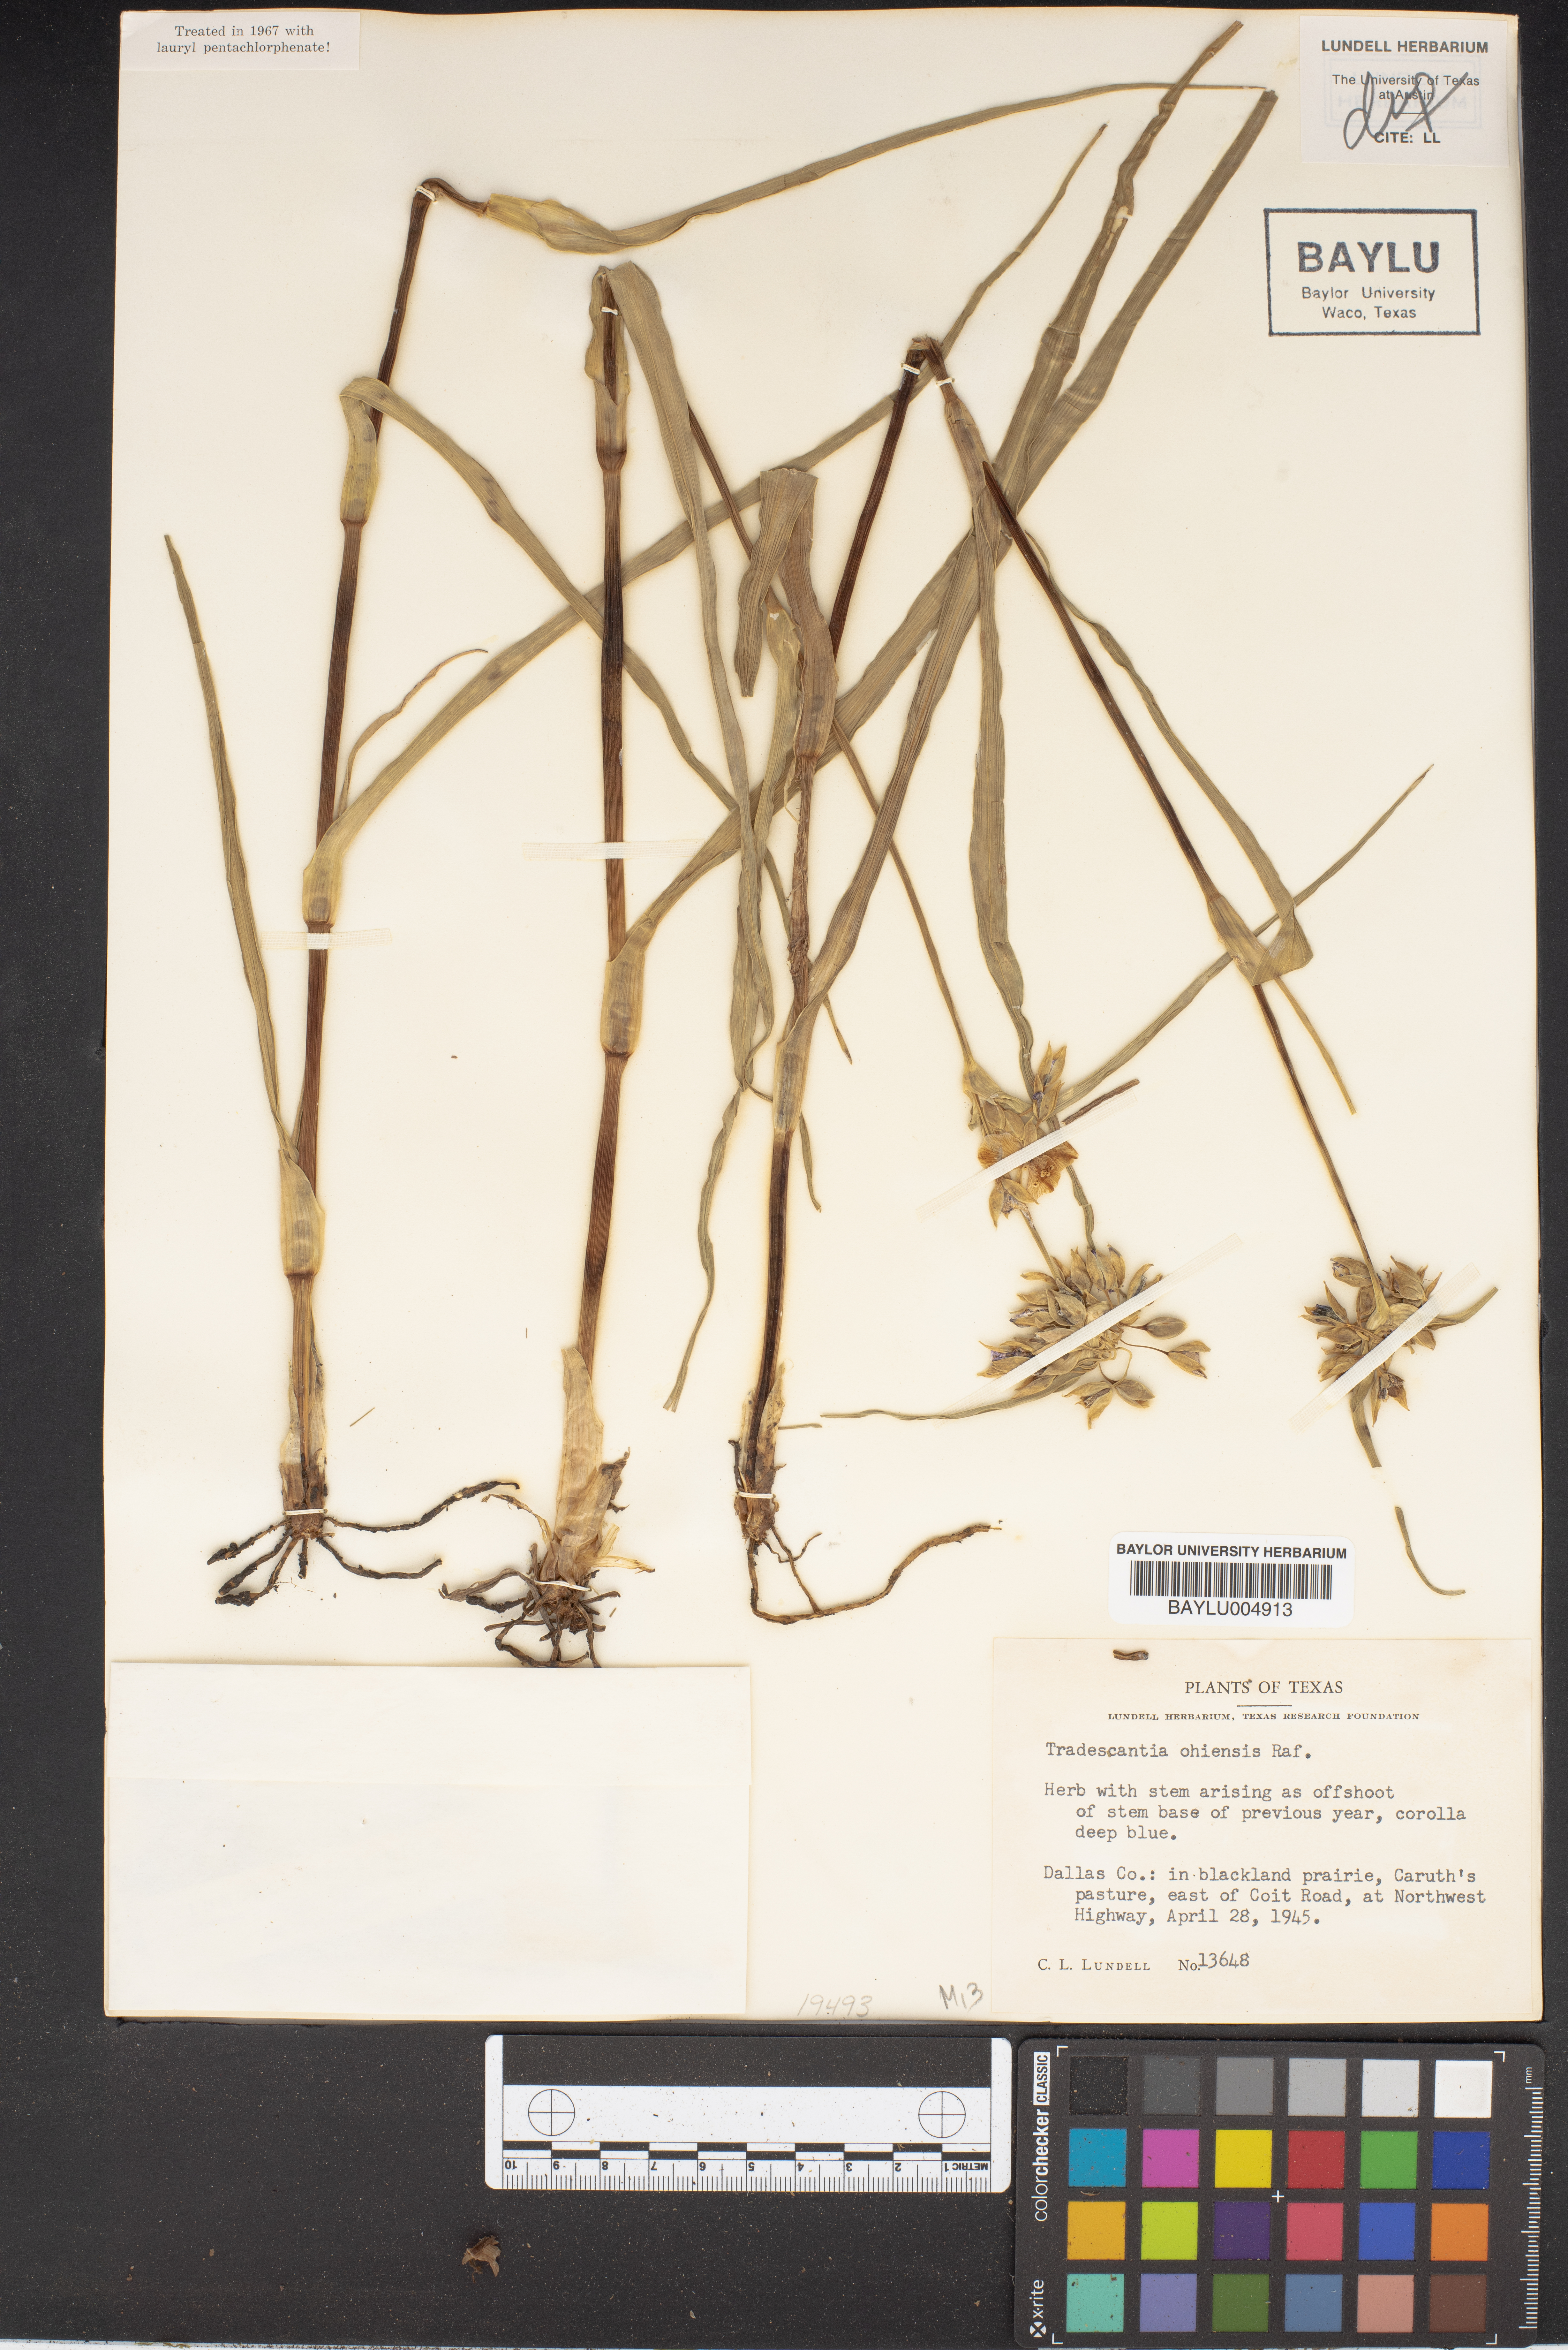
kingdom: Plantae
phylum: Tracheophyta
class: Liliopsida
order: Commelinales
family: Commelinaceae
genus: Tradescantia
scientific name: Tradescantia ohiensis
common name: Ohio spiderwort
